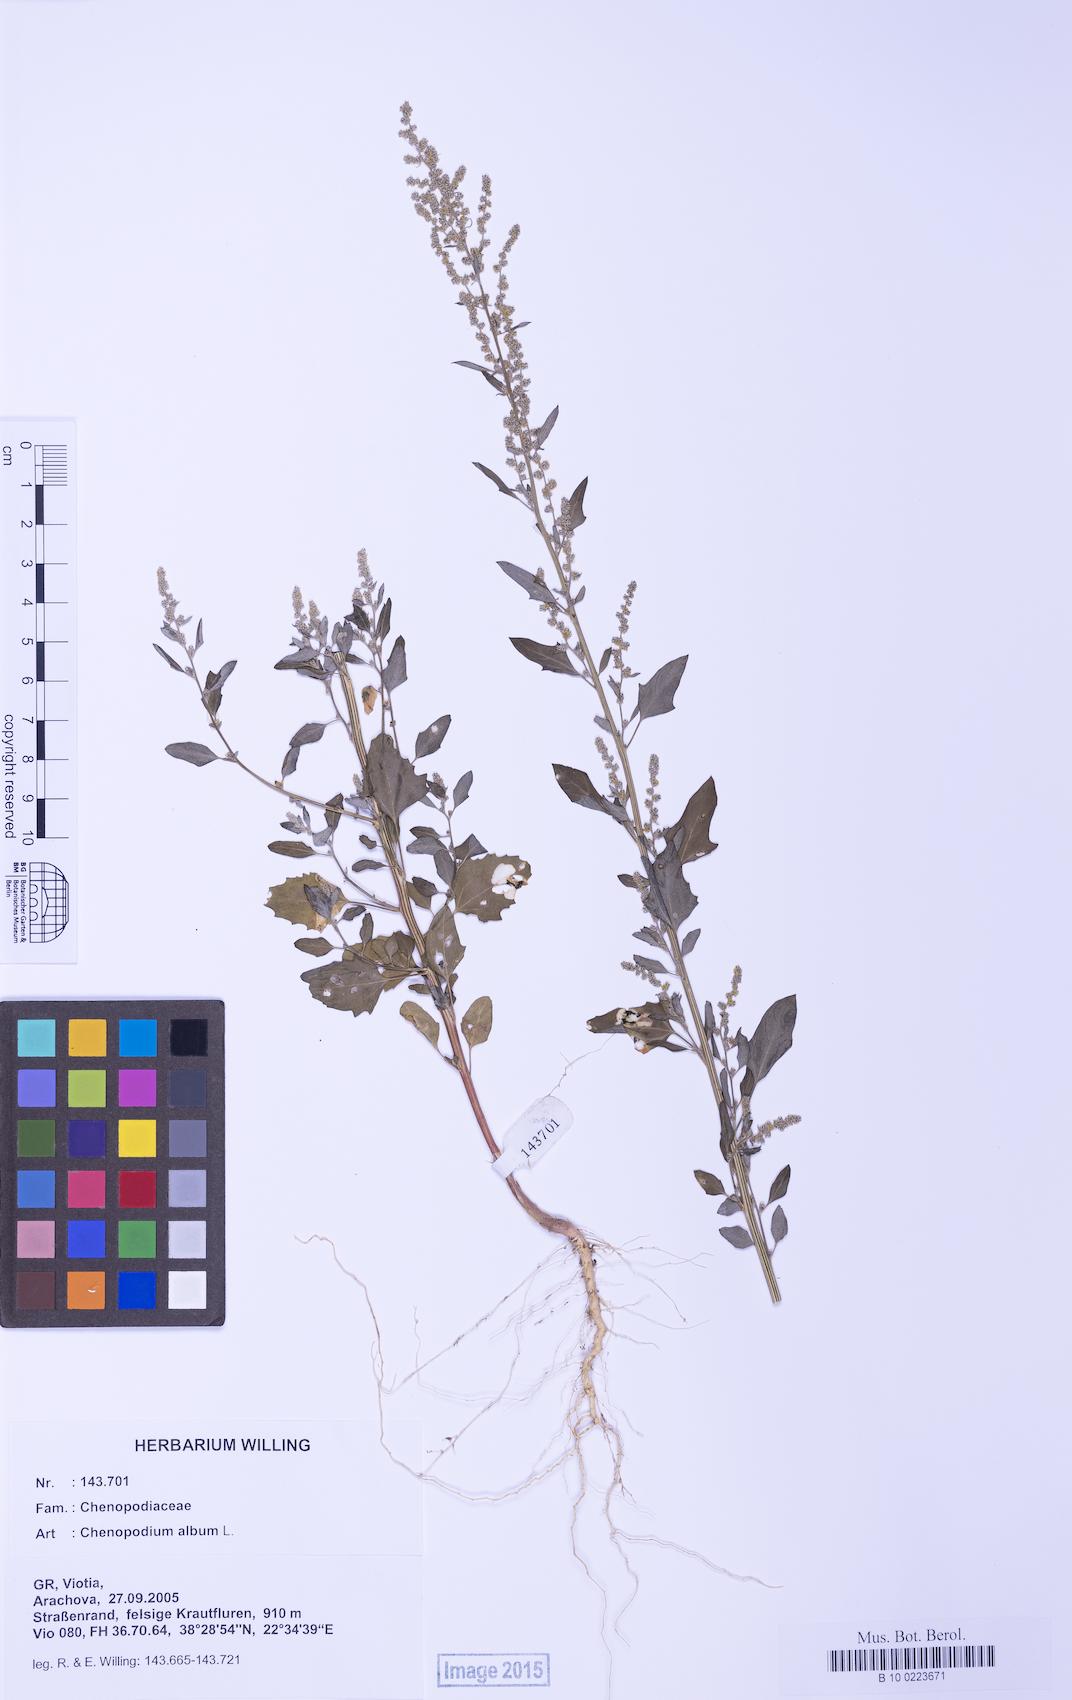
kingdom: Plantae
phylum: Tracheophyta
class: Magnoliopsida
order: Caryophyllales
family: Amaranthaceae
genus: Chenopodium
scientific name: Chenopodium album
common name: Fat-hen
